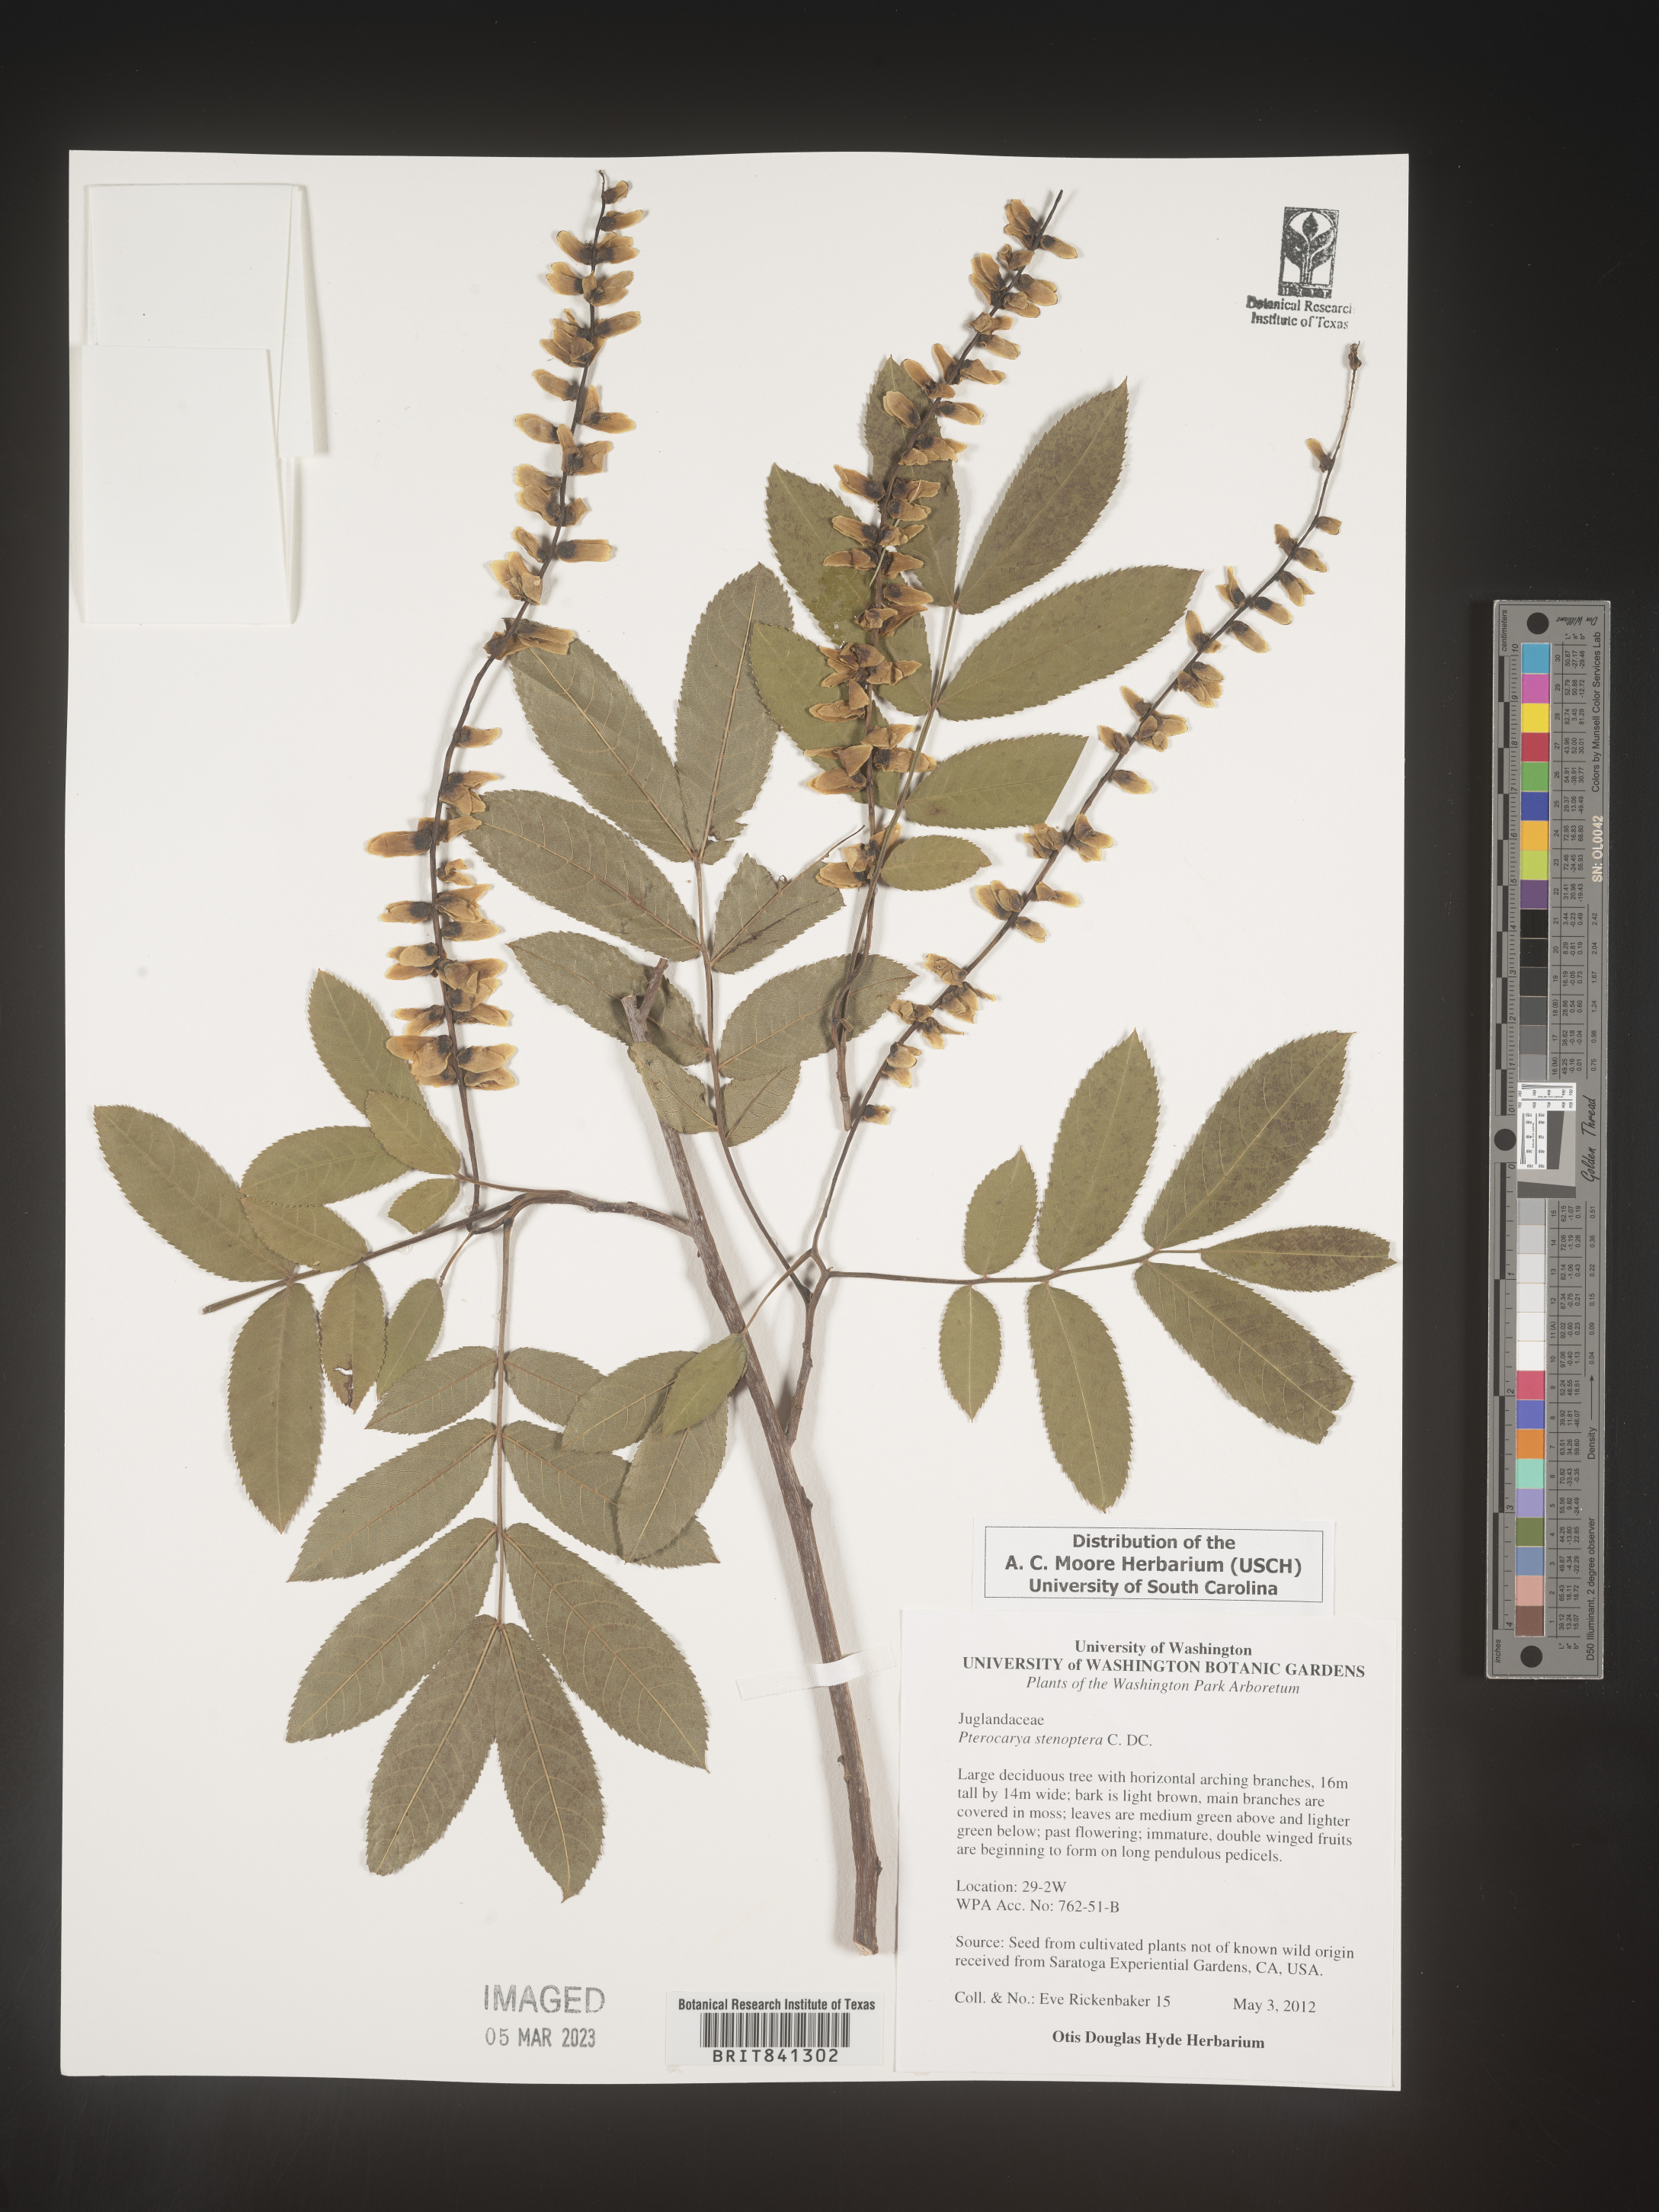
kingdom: Plantae
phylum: Tracheophyta
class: Magnoliopsida
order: Fagales
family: Juglandaceae
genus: Pterocarya
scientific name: Pterocarya stenoptera
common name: Chinese wingnut
